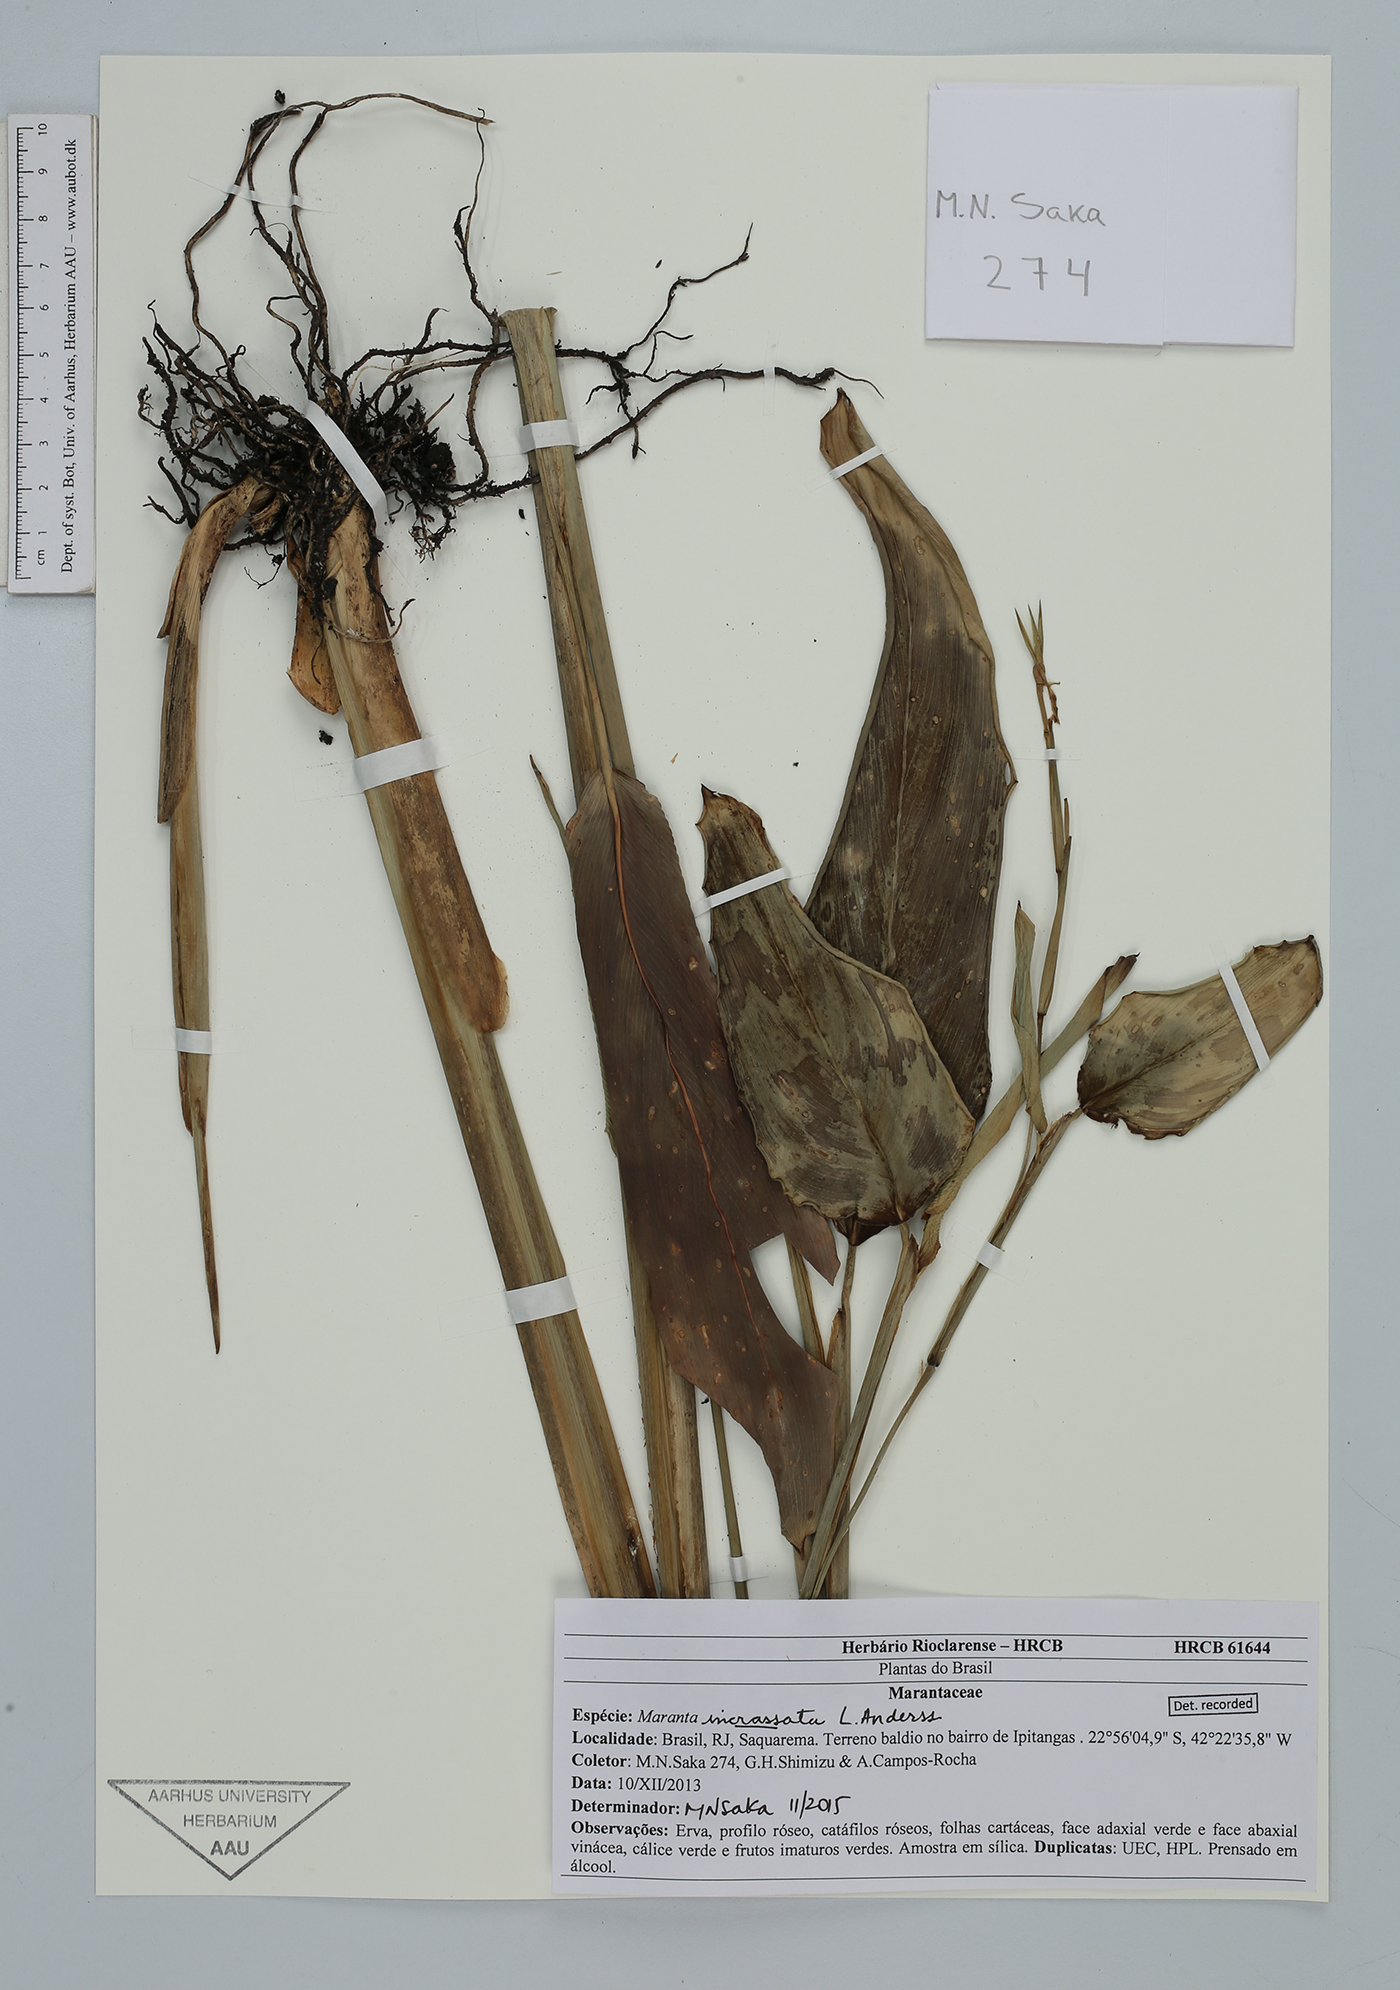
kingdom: Plantae
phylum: Tracheophyta
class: Liliopsida
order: Zingiberales
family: Marantaceae
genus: Maranta
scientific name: Maranta incrassata
